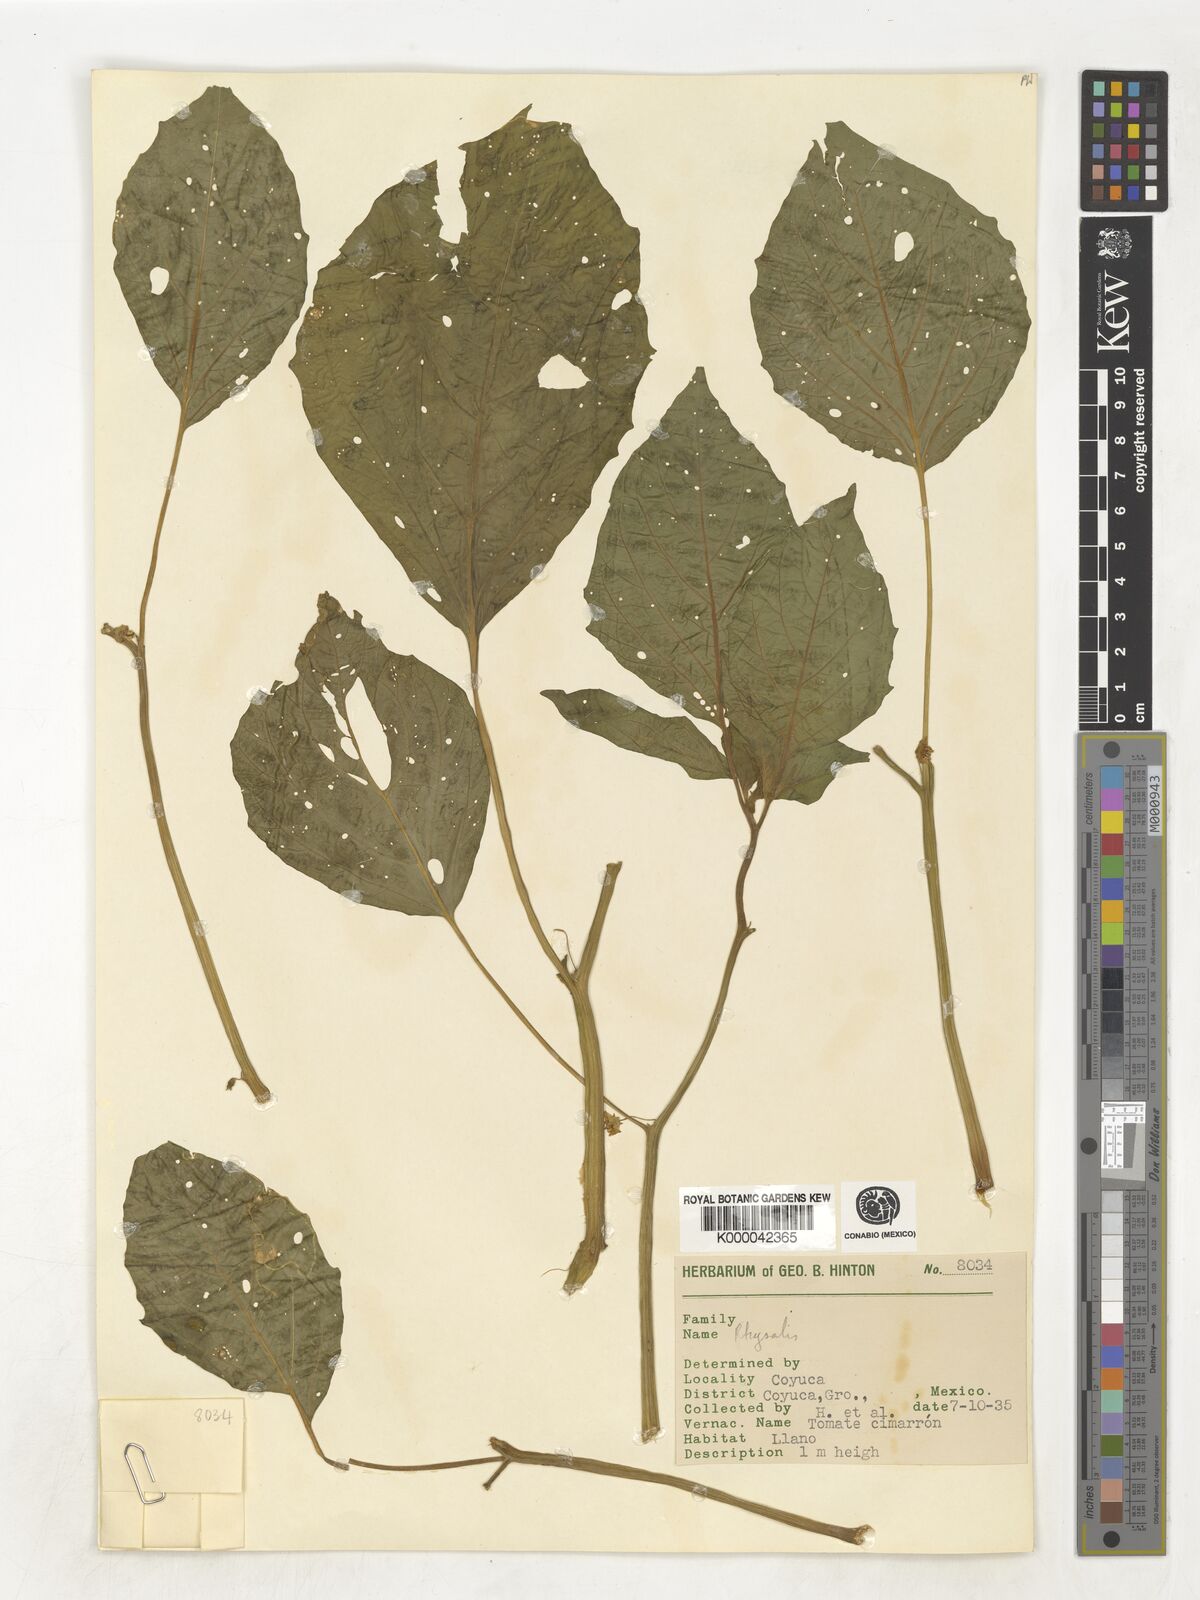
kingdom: Plantae
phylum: Tracheophyta
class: Magnoliopsida
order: Solanales
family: Solanaceae
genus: Physalis
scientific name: Physalis
